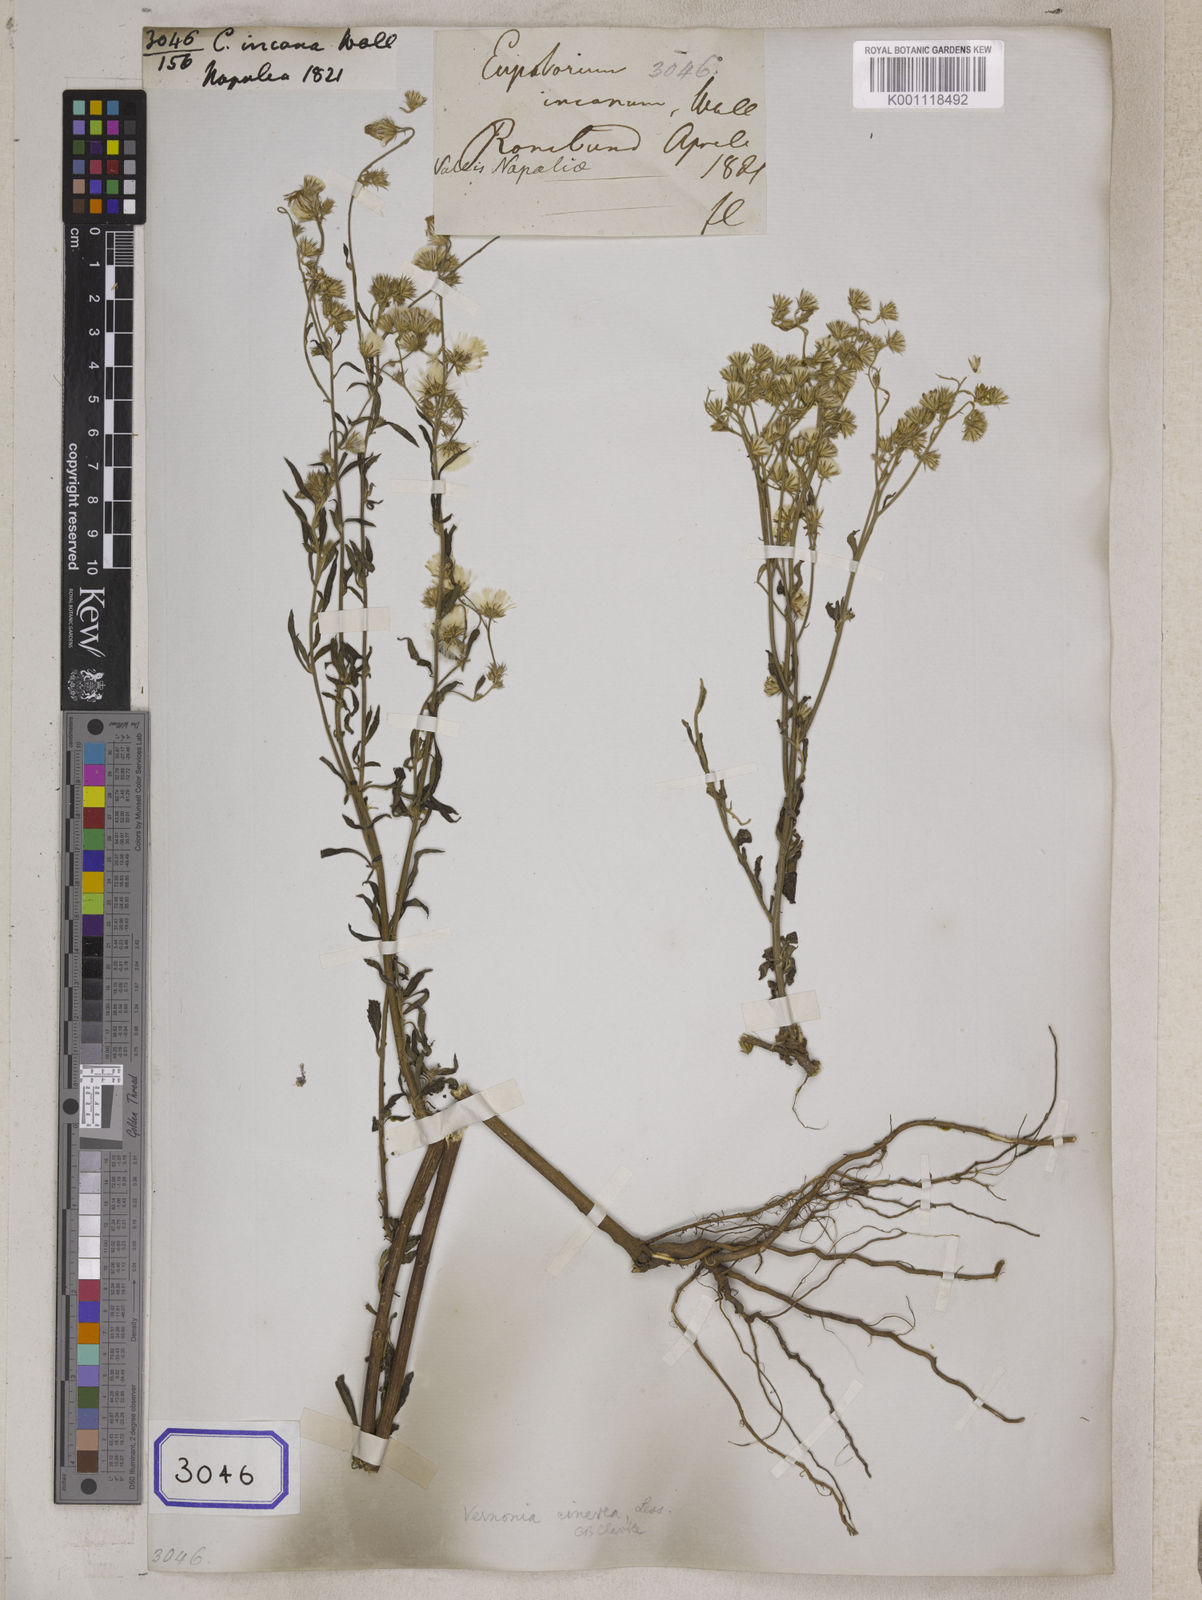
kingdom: Plantae
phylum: Tracheophyta
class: Magnoliopsida
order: Asterales
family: Asteraceae
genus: Cyanthillium
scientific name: Cyanthillium cinereum
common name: Little ironweed
